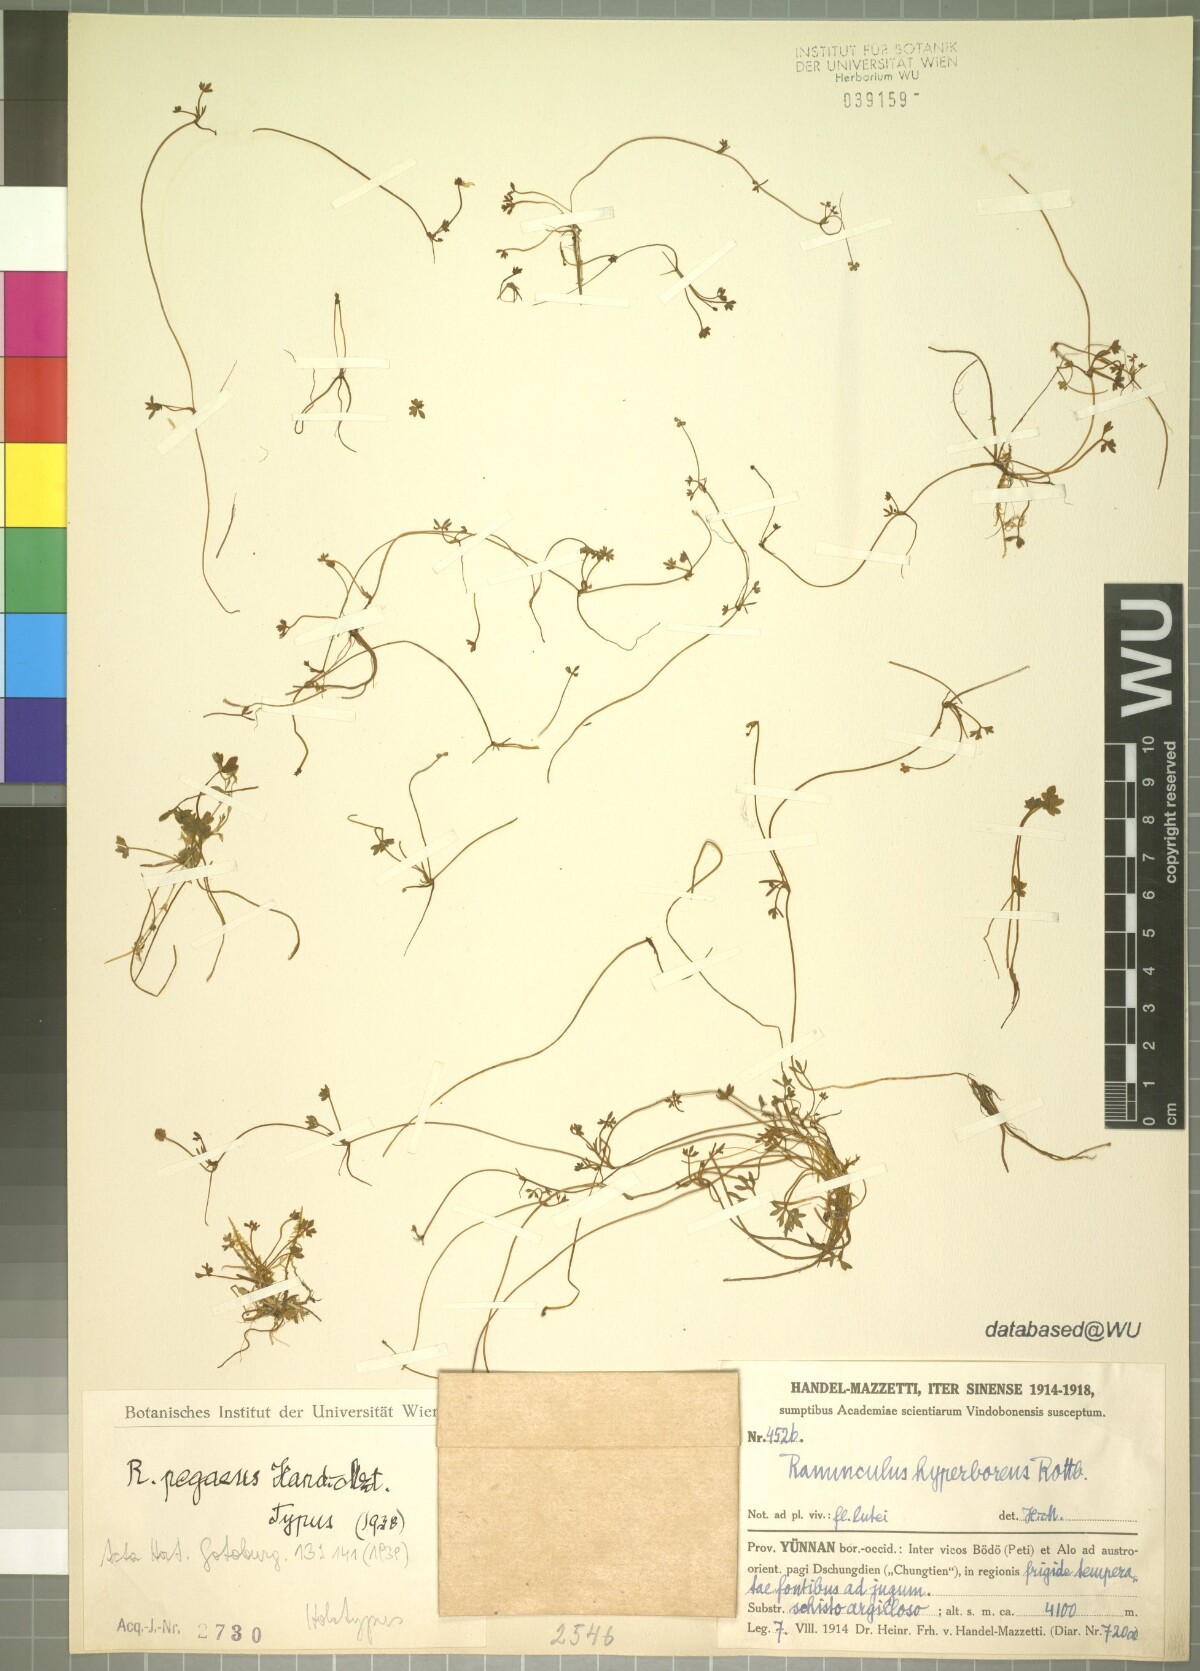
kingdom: Plantae
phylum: Tracheophyta
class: Magnoliopsida
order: Ranunculales
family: Ranunculaceae
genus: Ranunculus
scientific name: Ranunculus pegaeus
